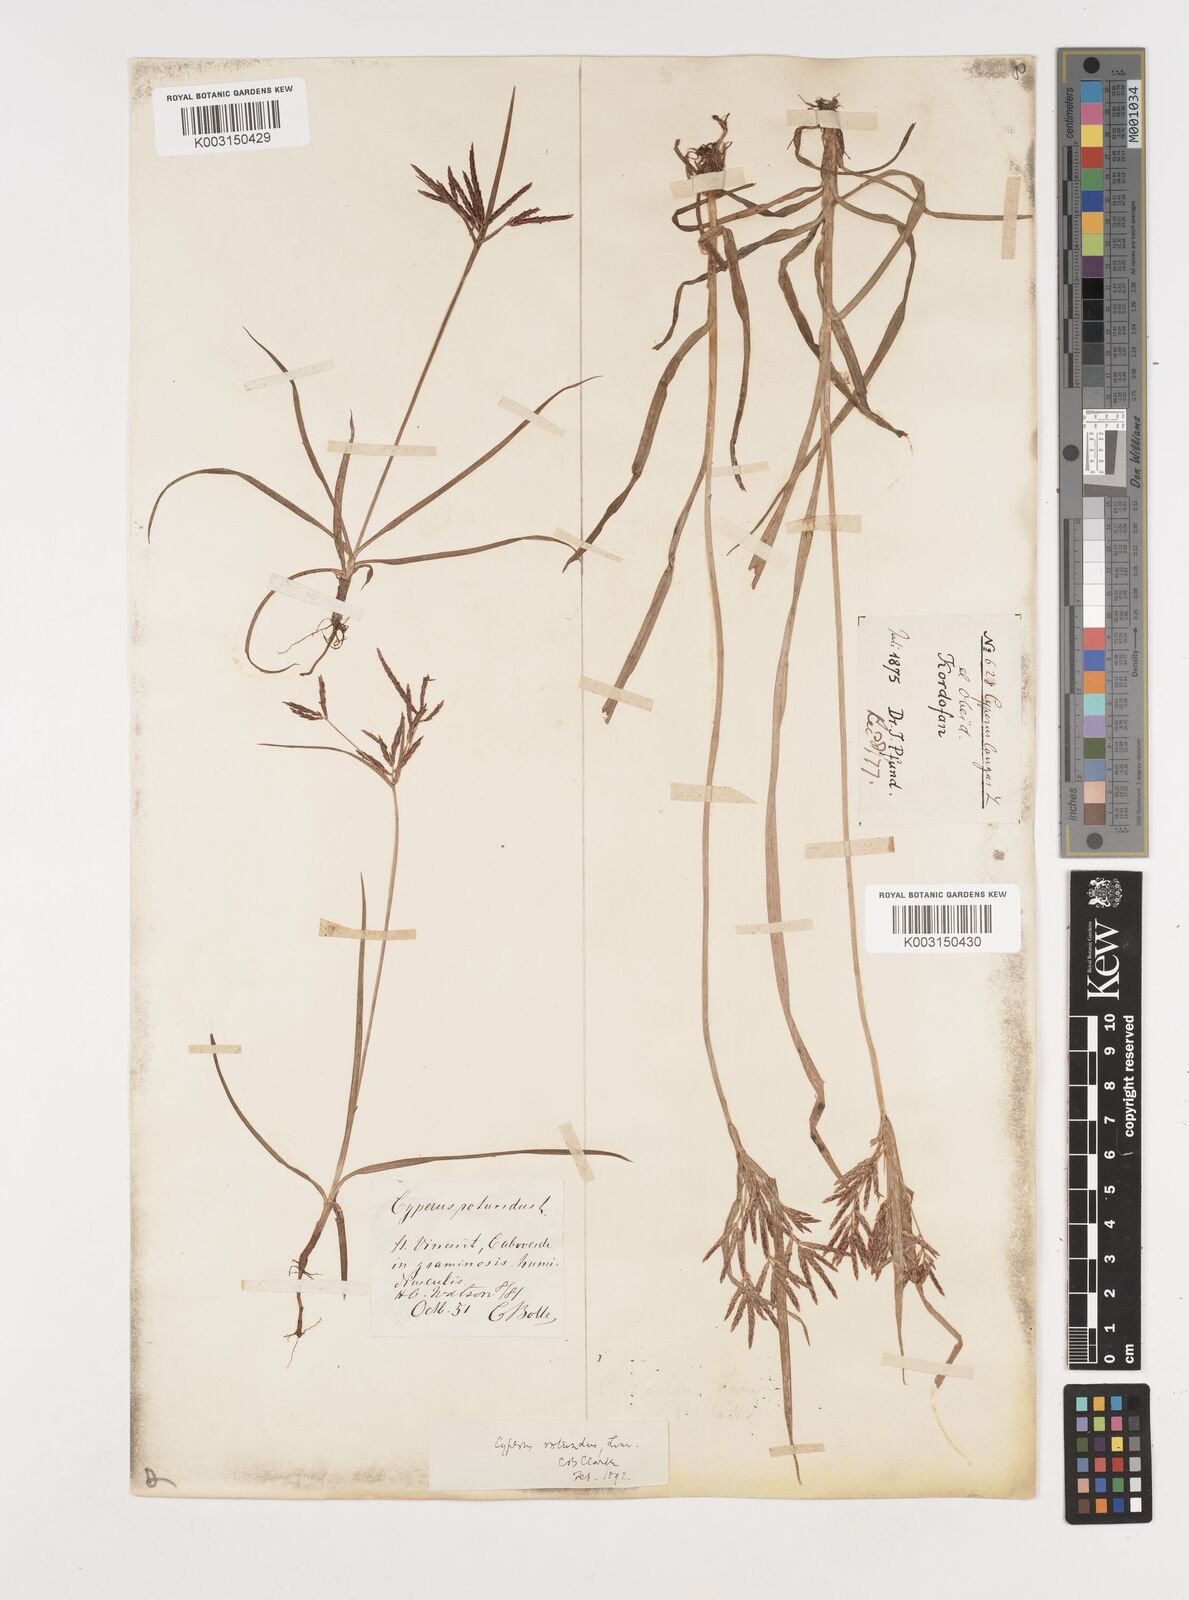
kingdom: Plantae
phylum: Tracheophyta
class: Liliopsida
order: Poales
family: Cyperaceae
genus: Cyperus
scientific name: Cyperus rotundus
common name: Nutgrass
